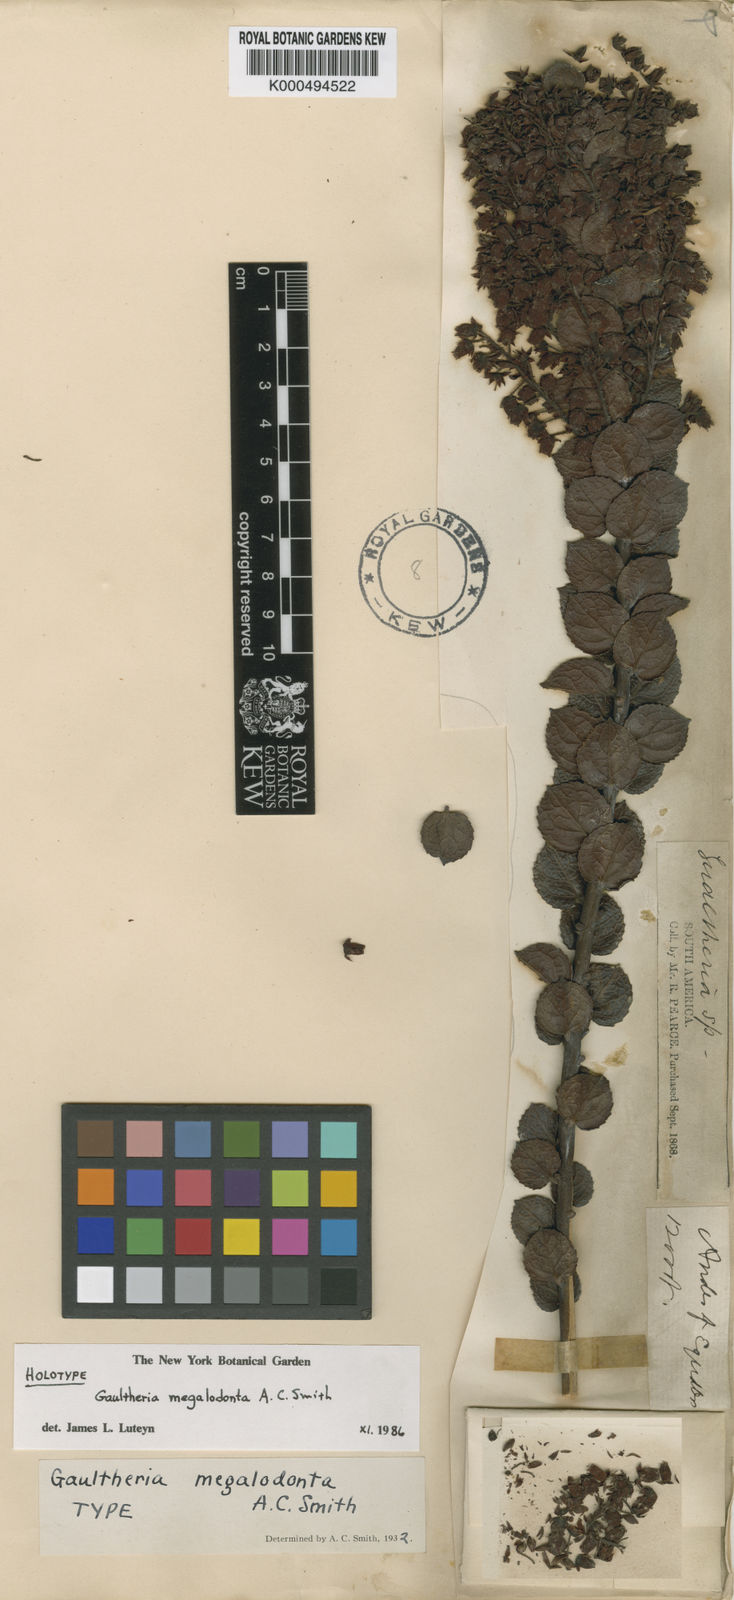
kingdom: Plantae
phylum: Tracheophyta
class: Magnoliopsida
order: Ericales
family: Ericaceae
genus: Gaultheria
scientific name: Gaultheria megalodonta
